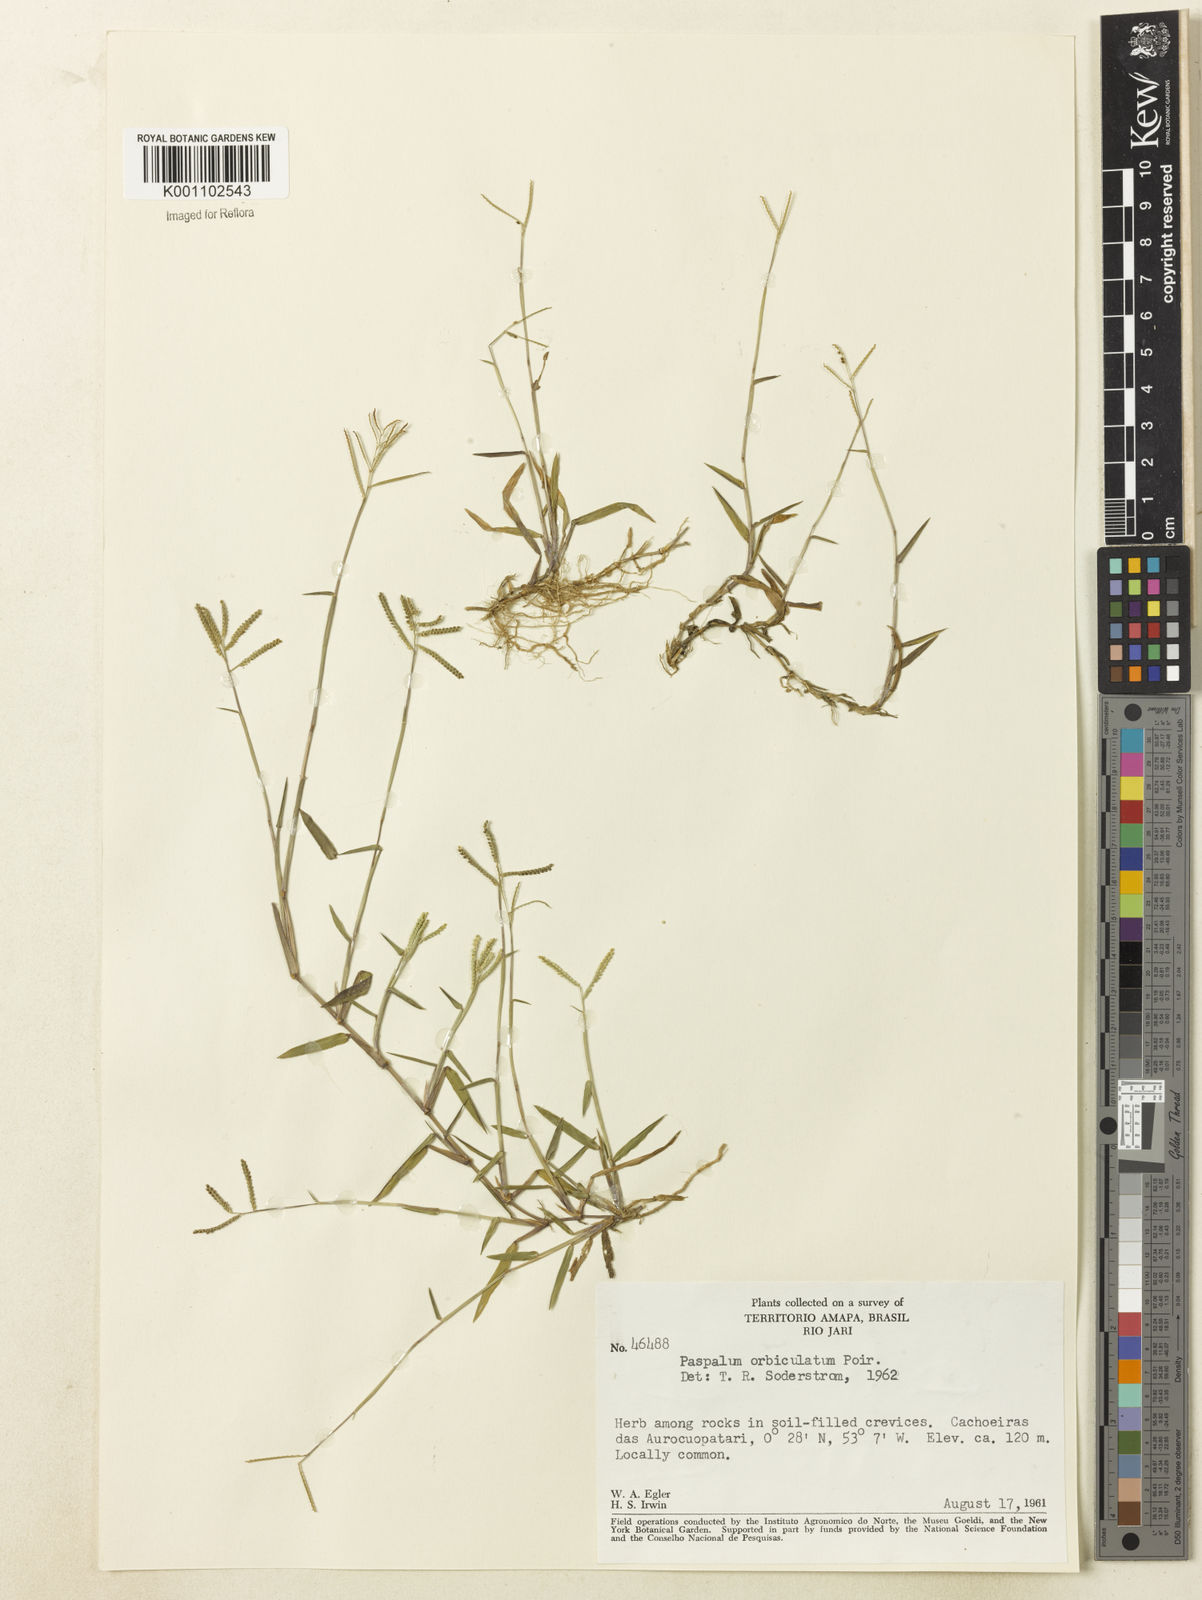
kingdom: Plantae
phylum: Tracheophyta
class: Liliopsida
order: Poales
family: Poaceae
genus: Paspalum
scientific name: Paspalum orbiculatum
